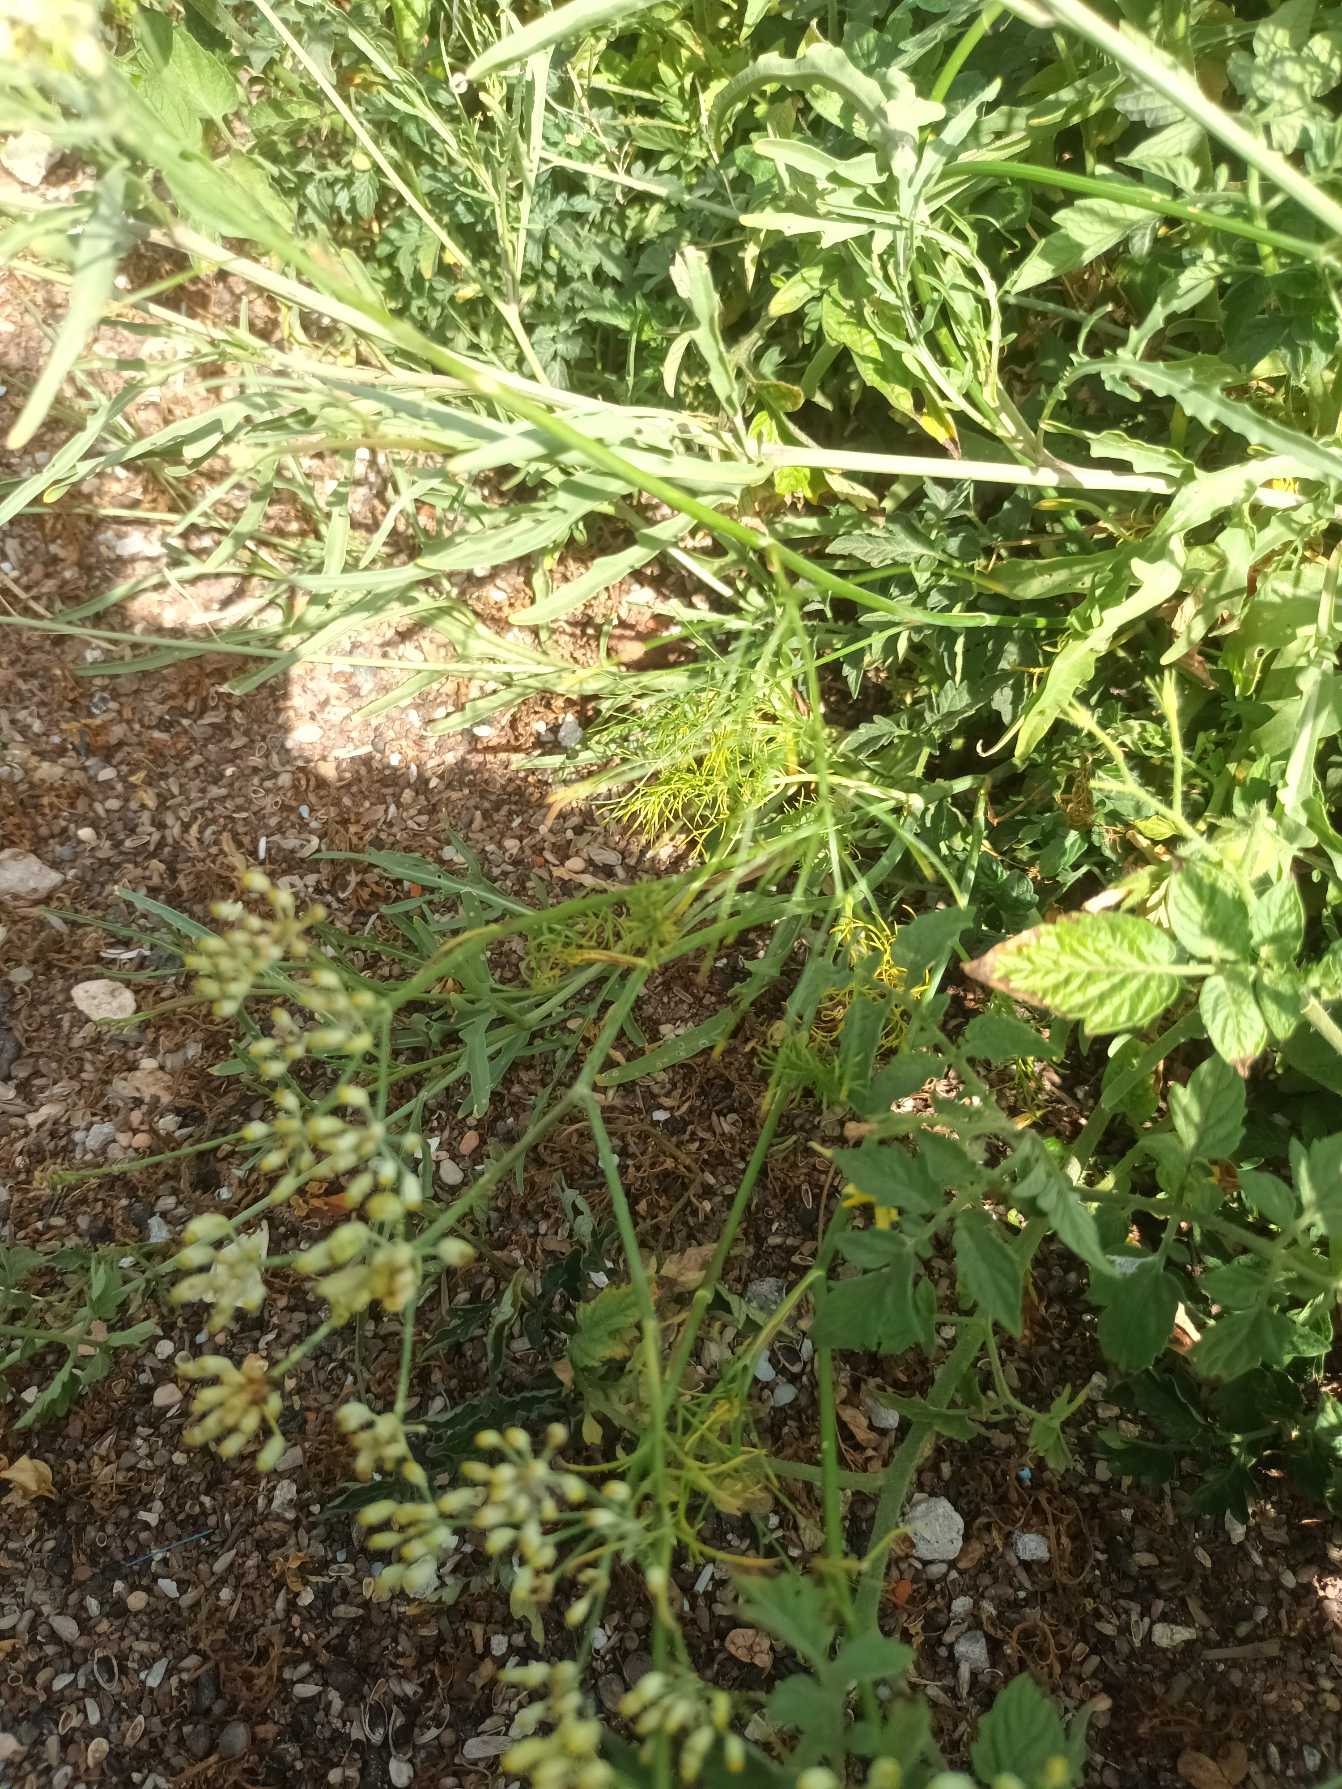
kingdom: Plantae
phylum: Tracheophyta
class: Magnoliopsida
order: Apiales
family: Apiaceae
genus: Anethum
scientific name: Anethum graveolens
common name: Dild
